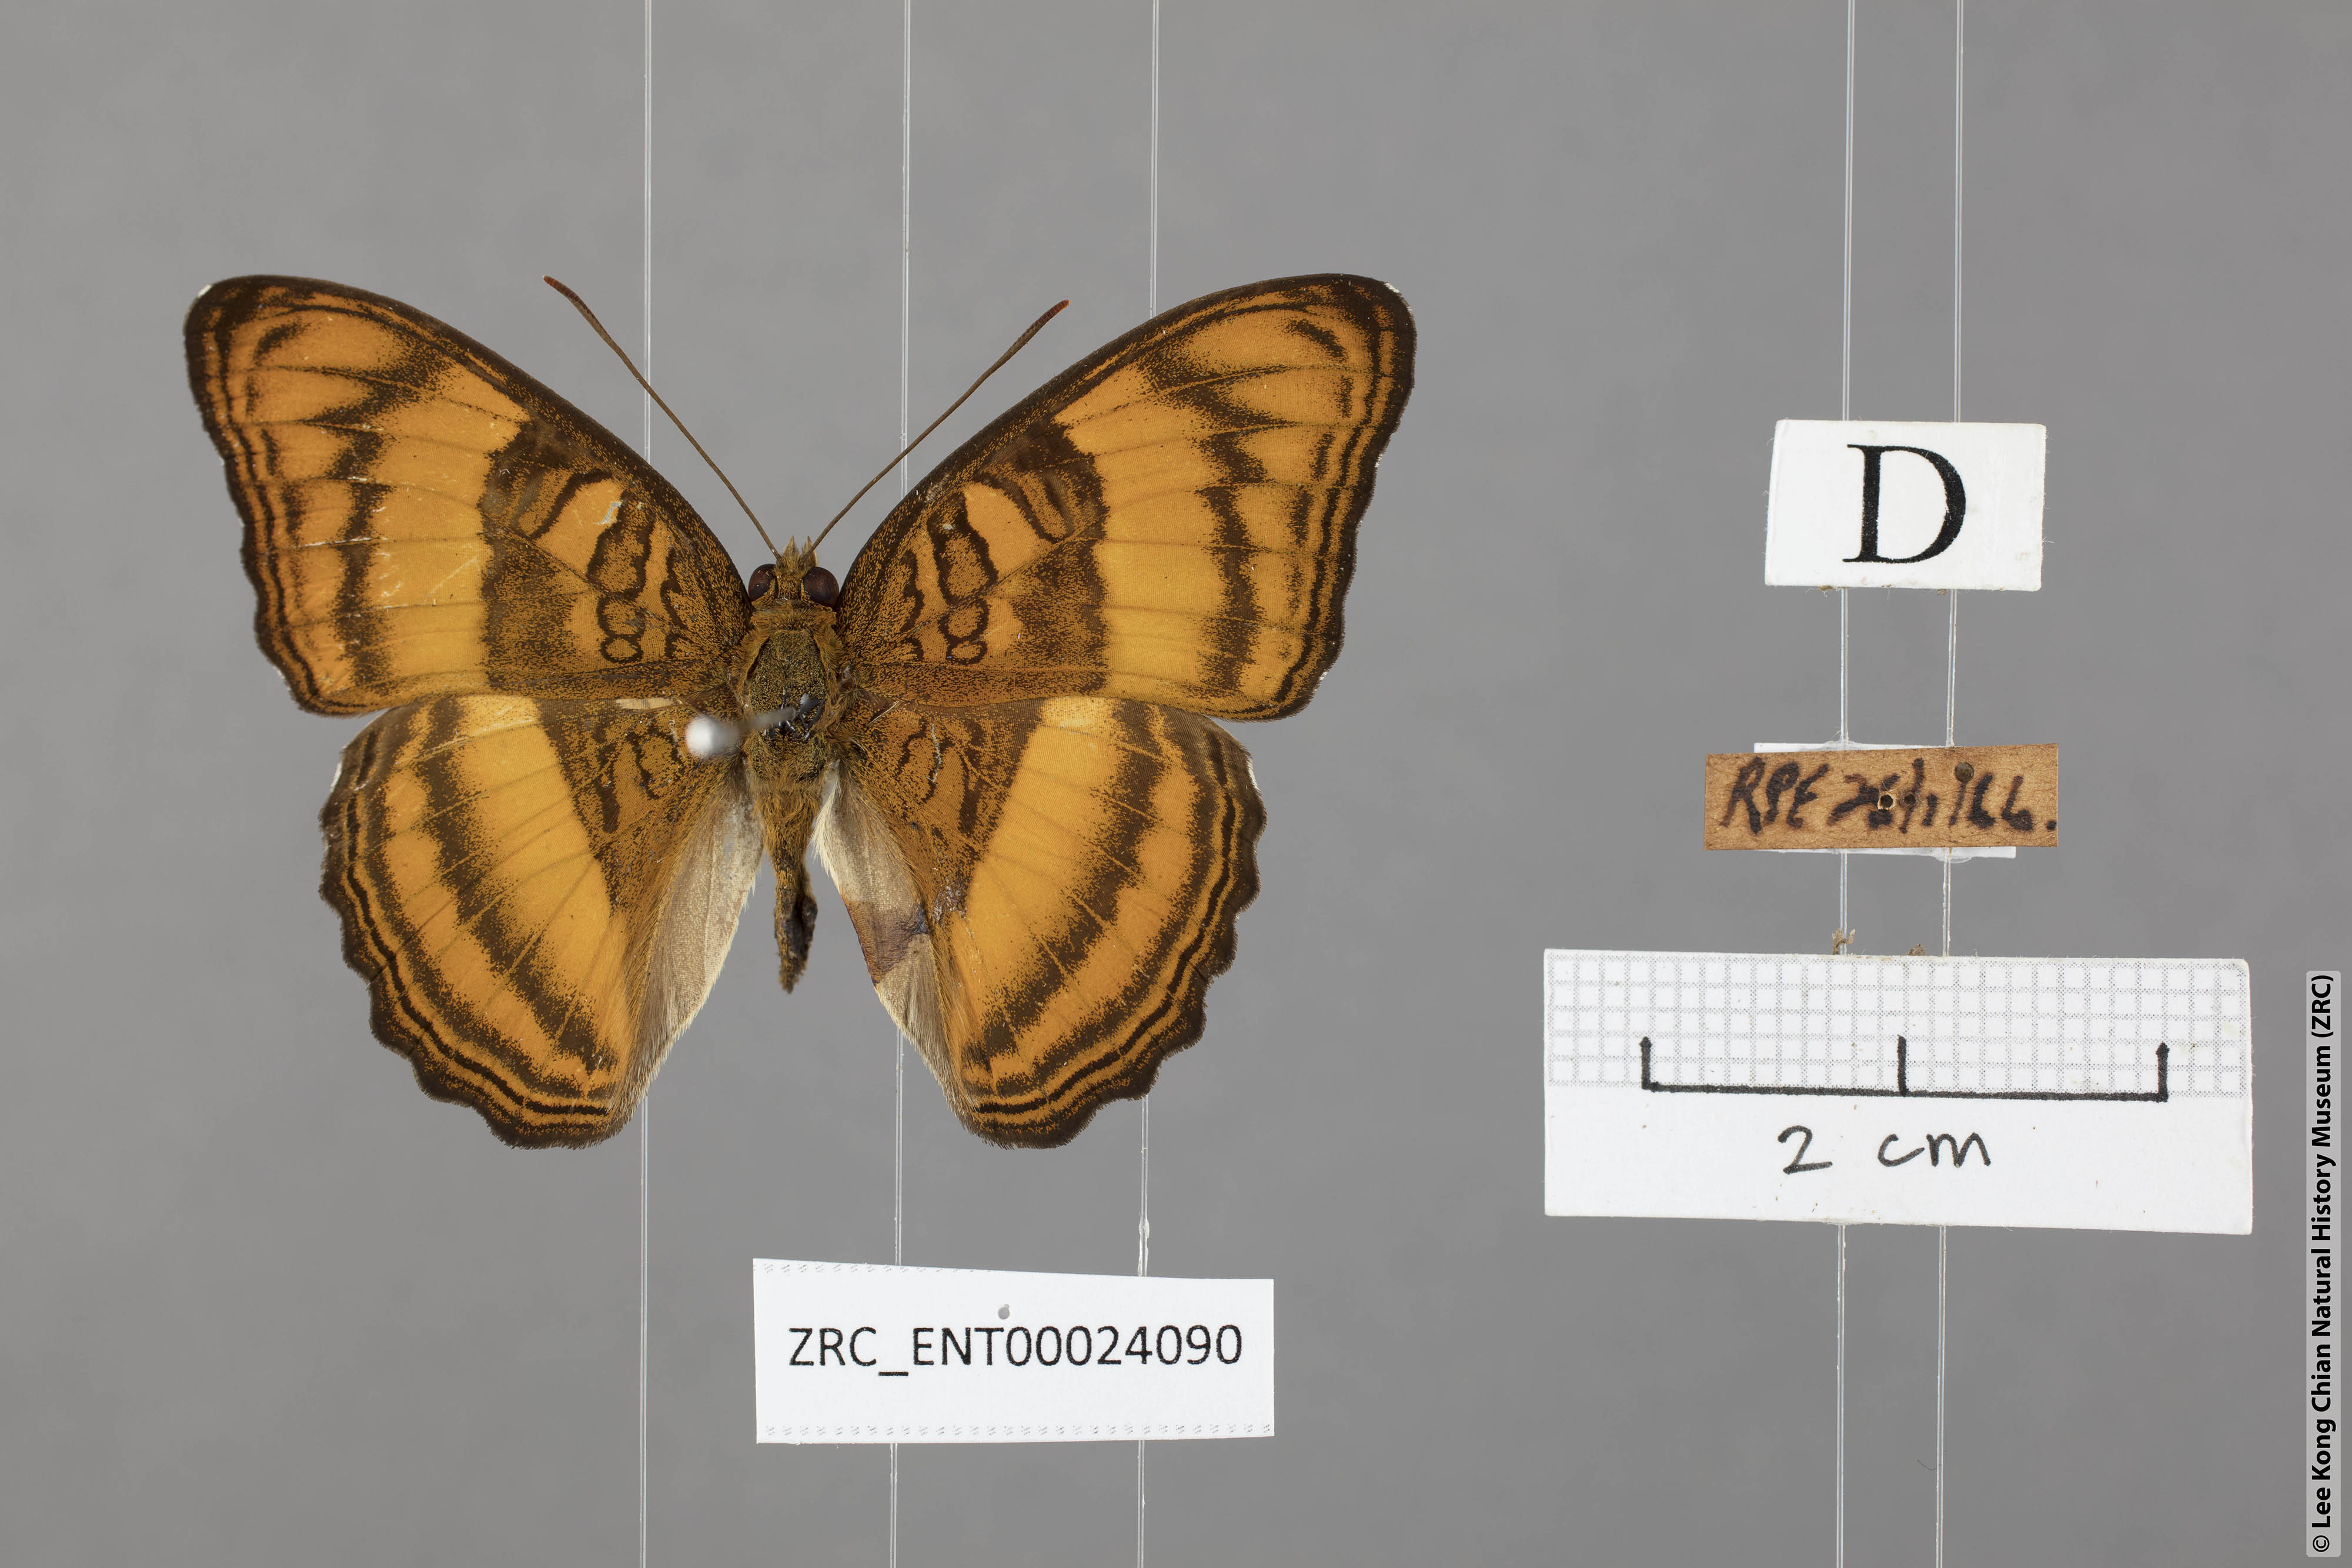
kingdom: Animalia
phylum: Arthropoda
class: Insecta
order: Lepidoptera
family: Nymphalidae
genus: Pandita
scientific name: Pandita sinope
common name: Colonel
